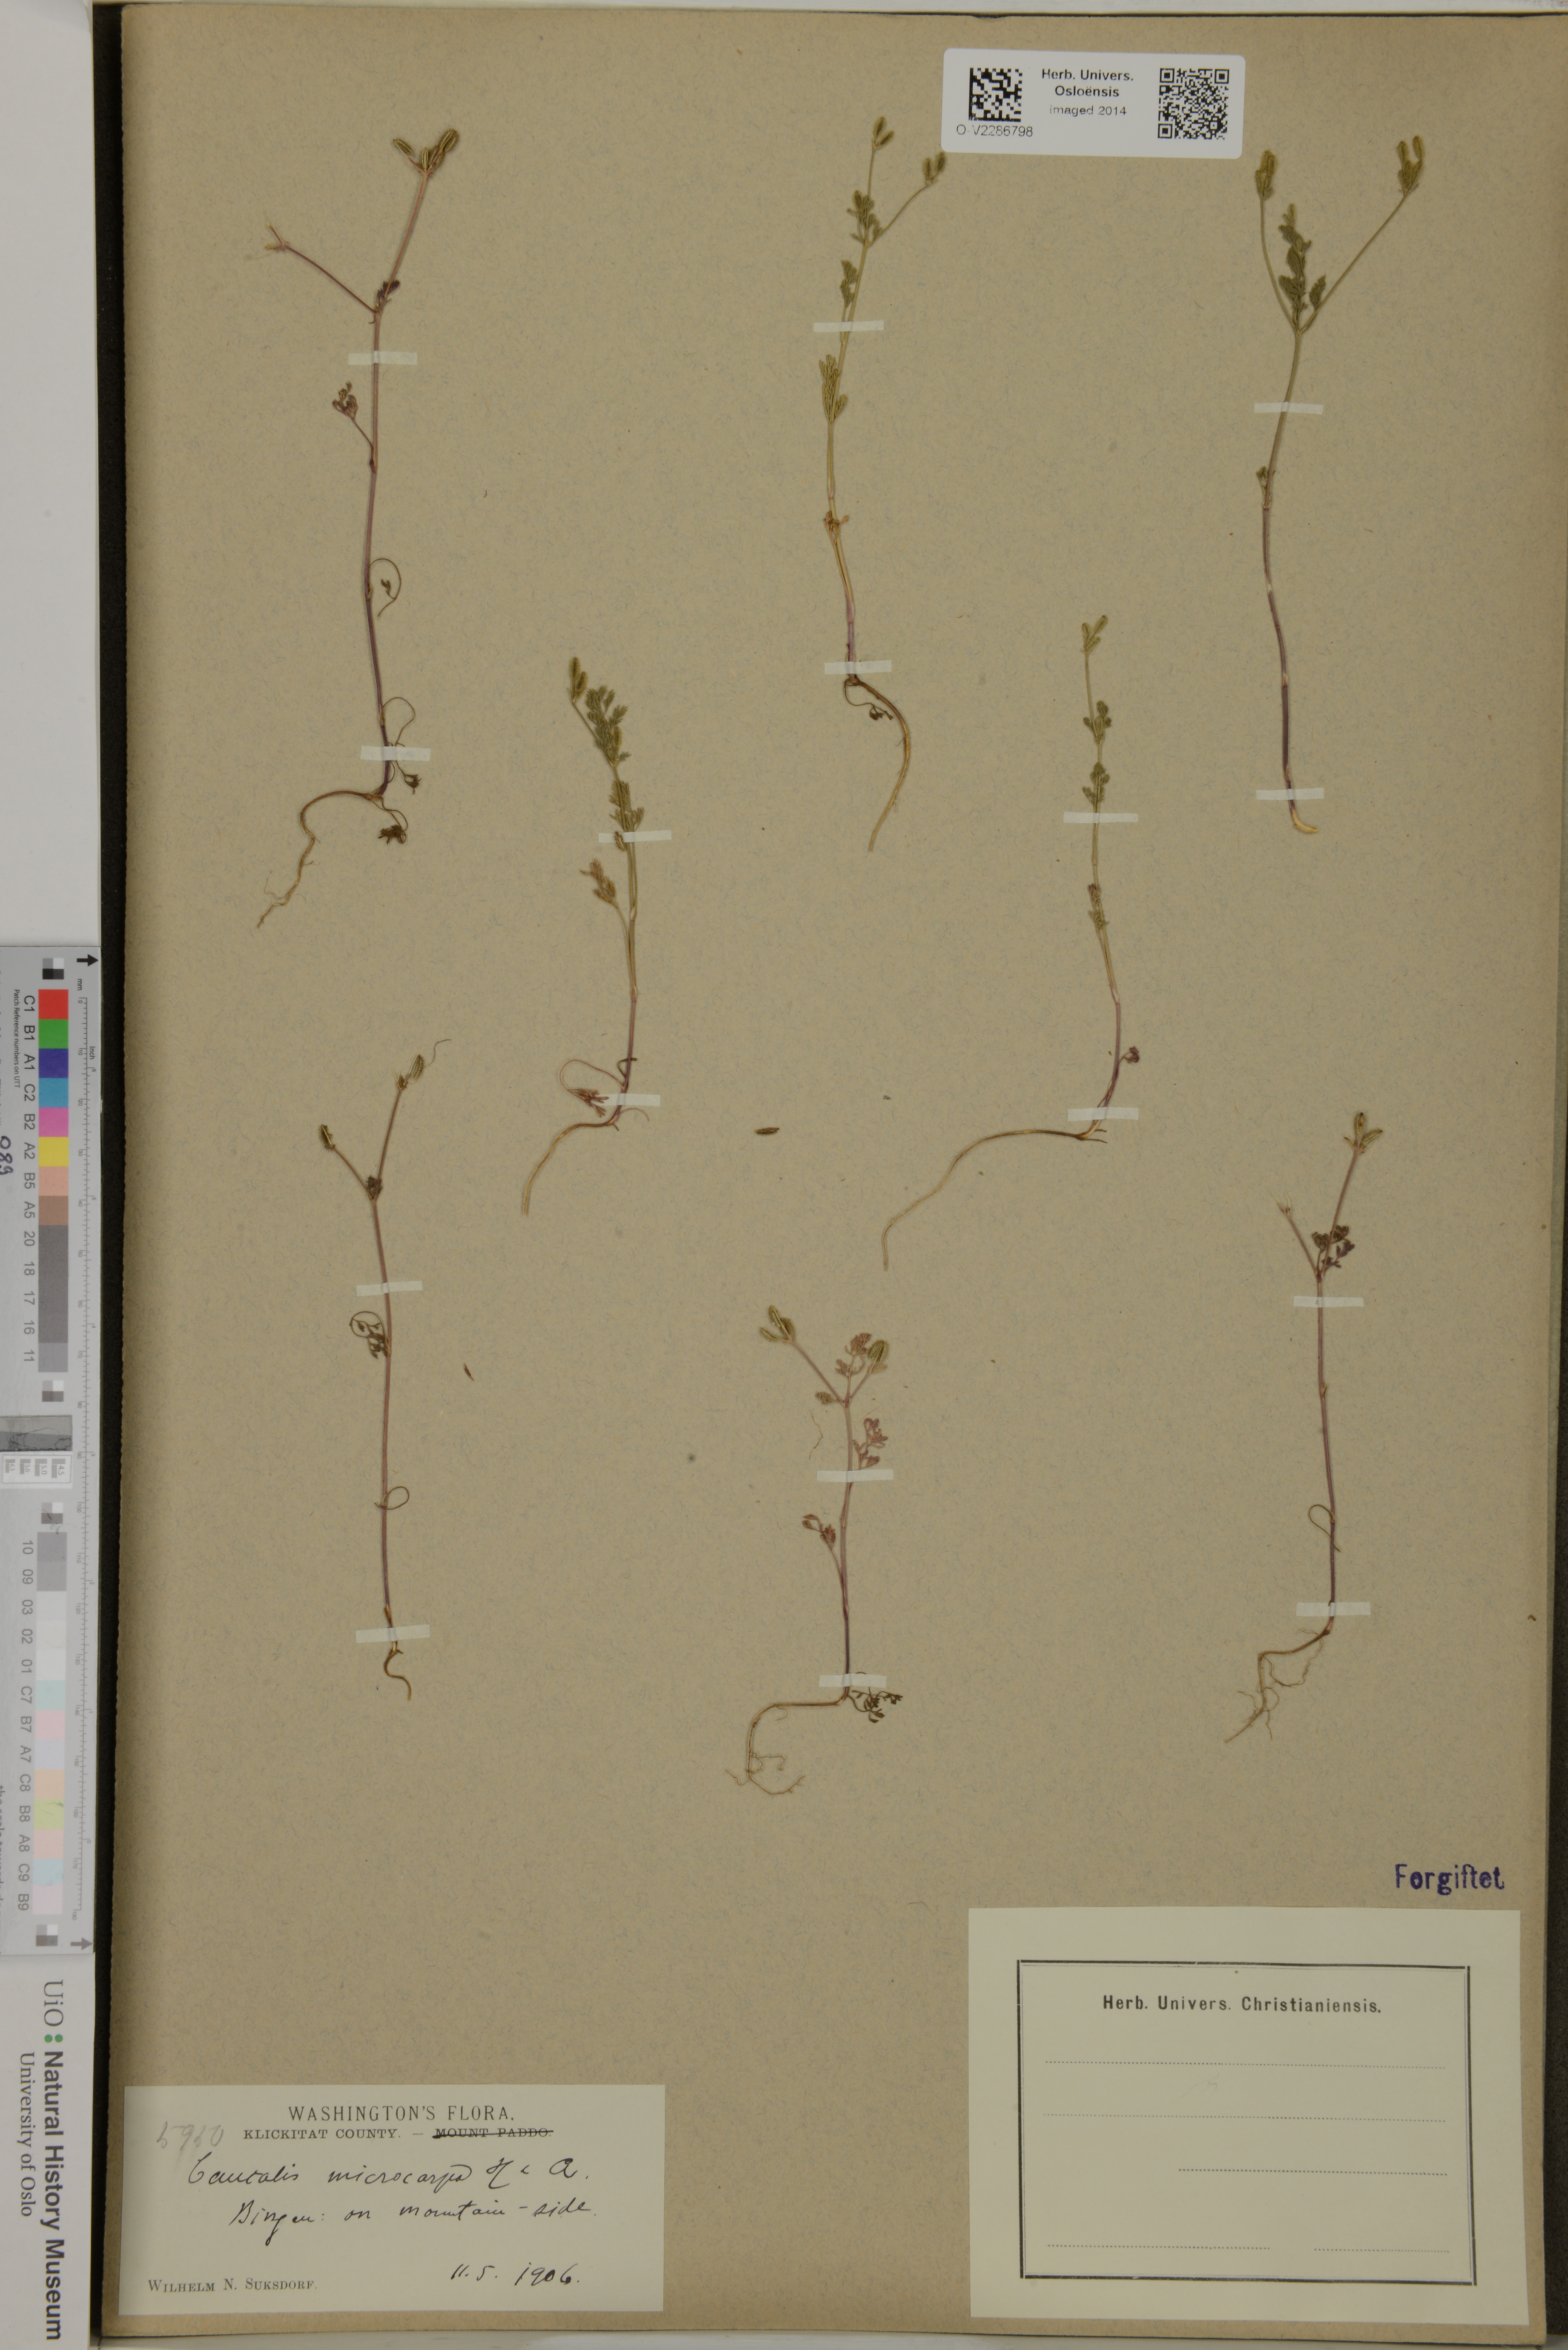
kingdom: Plantae
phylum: Tracheophyta
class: Magnoliopsida
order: Apiales
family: Apiaceae
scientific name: Apiaceae
